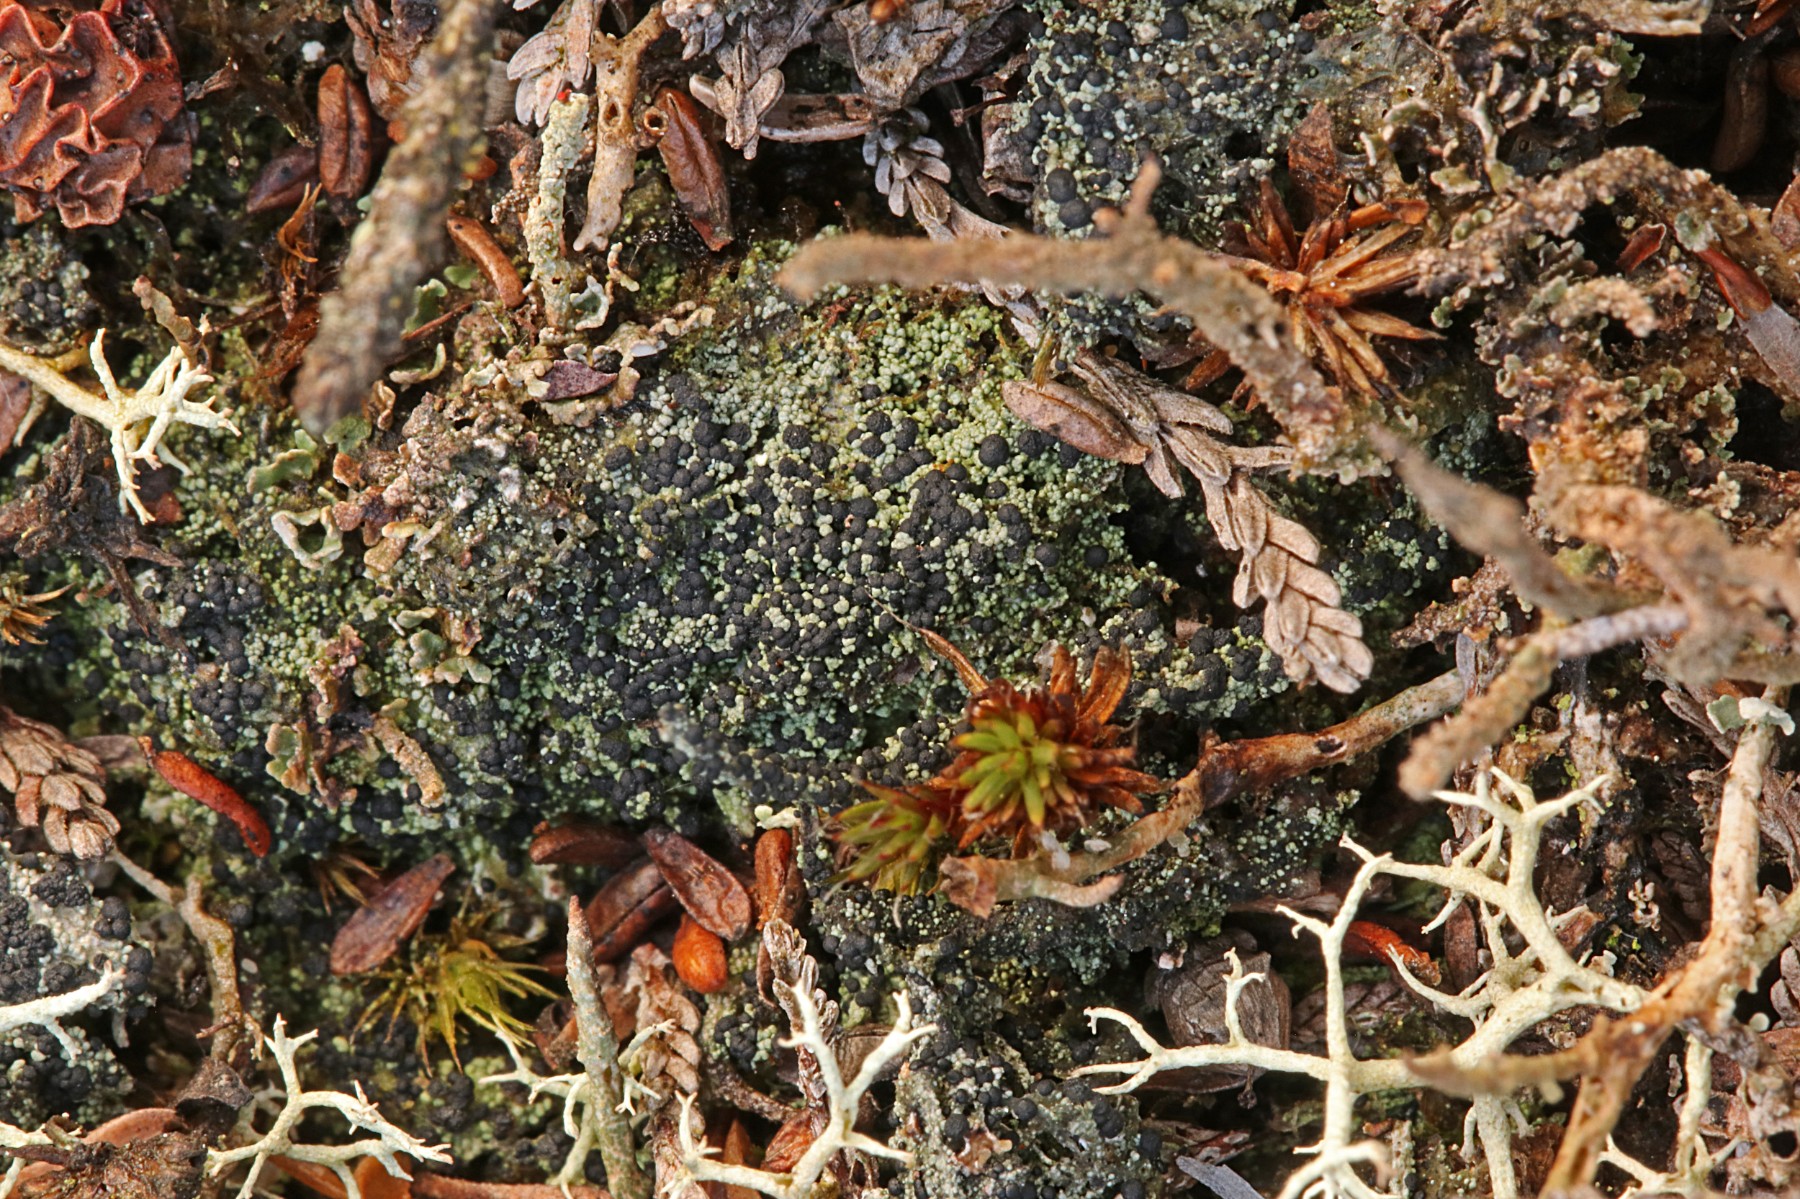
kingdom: Fungi
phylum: Ascomycota
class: Lecanoromycetes
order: Lecanorales
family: Byssolomataceae
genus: Micarea
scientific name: Micarea lignaria
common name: tørve-knaplav
